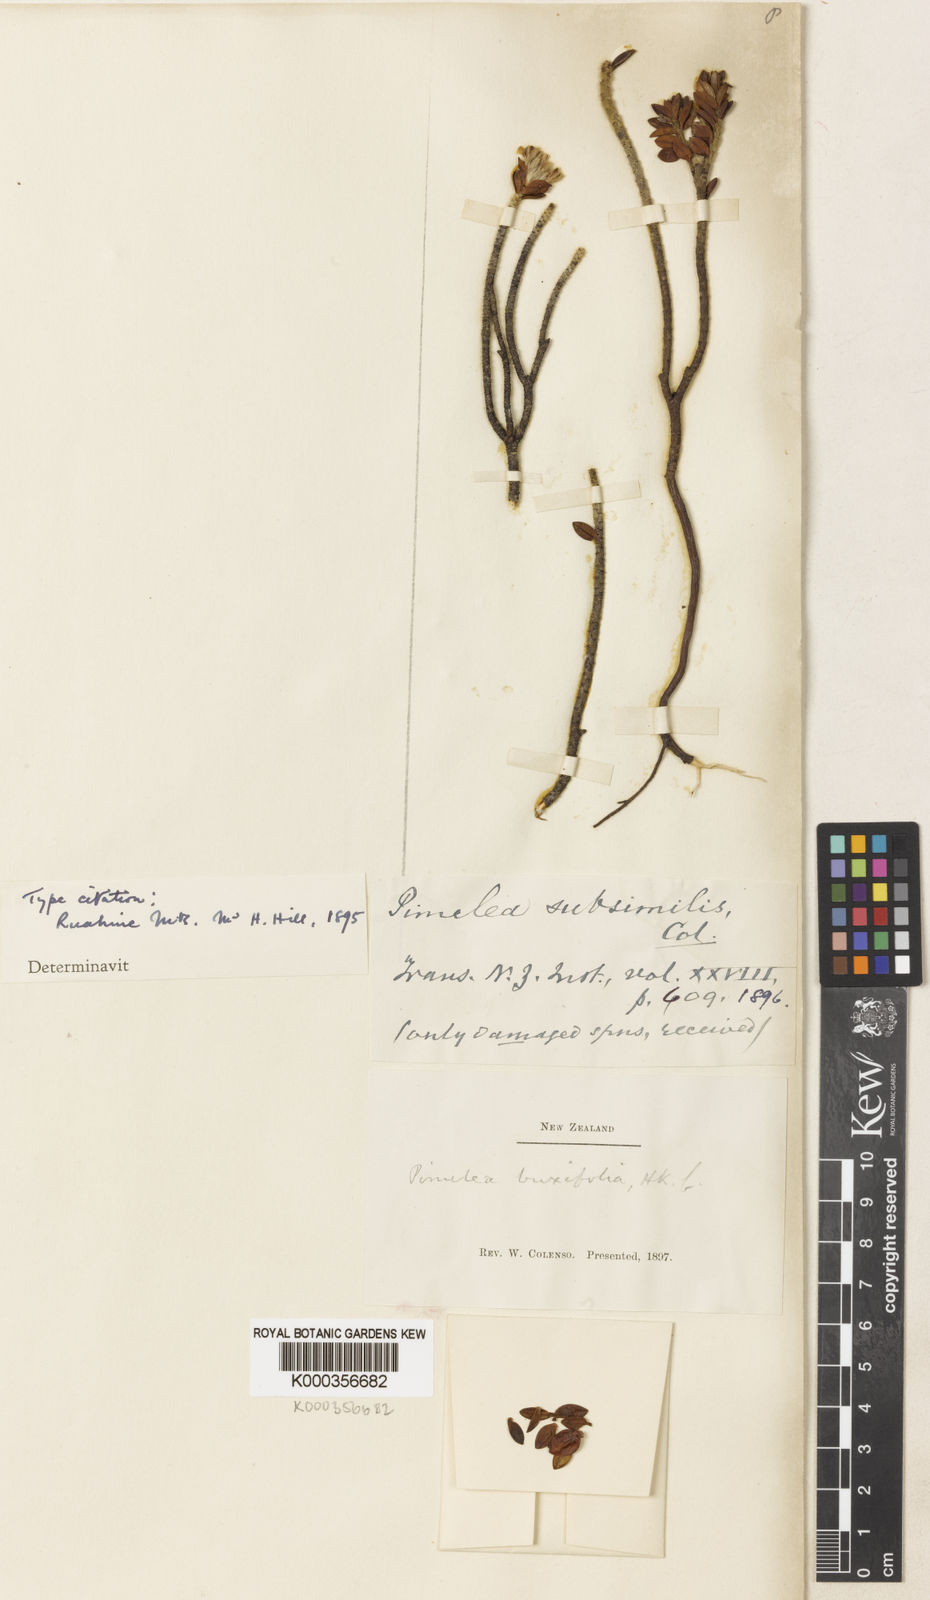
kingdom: Plantae
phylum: Tracheophyta
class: Magnoliopsida
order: Malvales
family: Thymelaeaceae
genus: Pimelea
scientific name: Pimelea buxifolia
